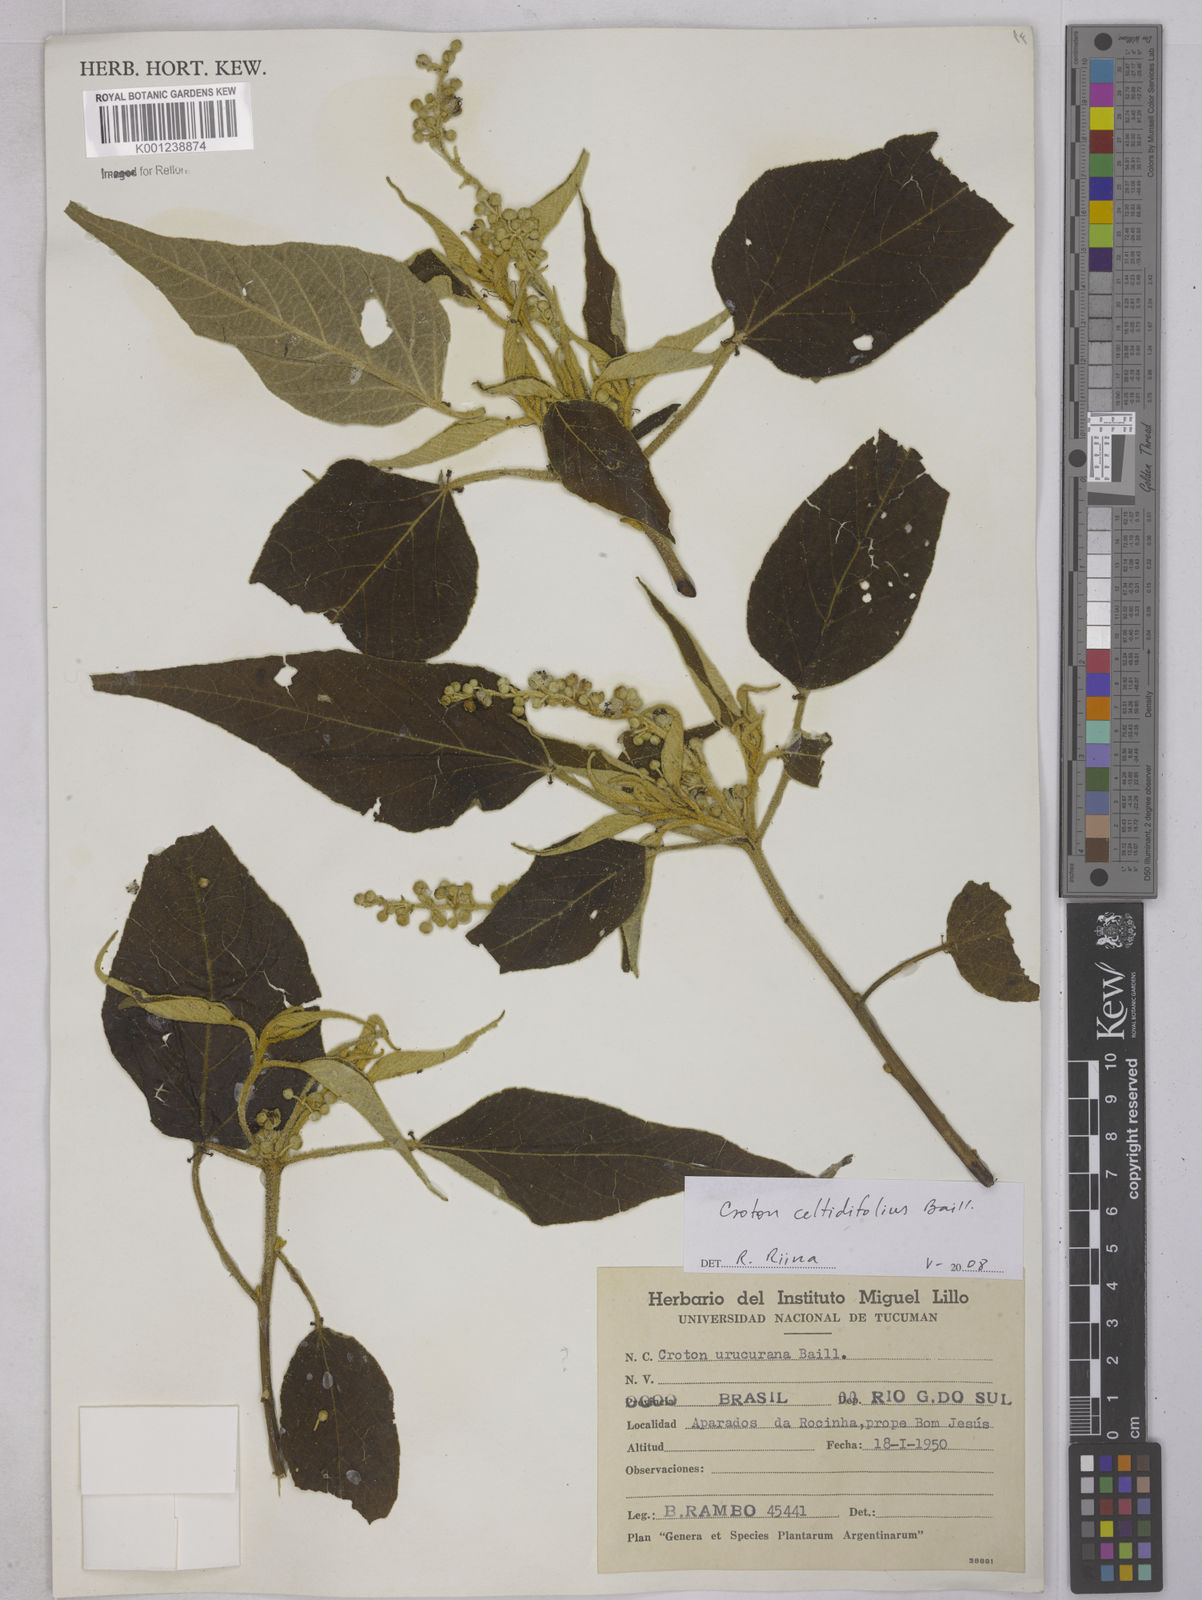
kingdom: Plantae
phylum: Tracheophyta
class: Magnoliopsida
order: Malpighiales
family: Euphorbiaceae
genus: Croton
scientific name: Croton celtidifolius
